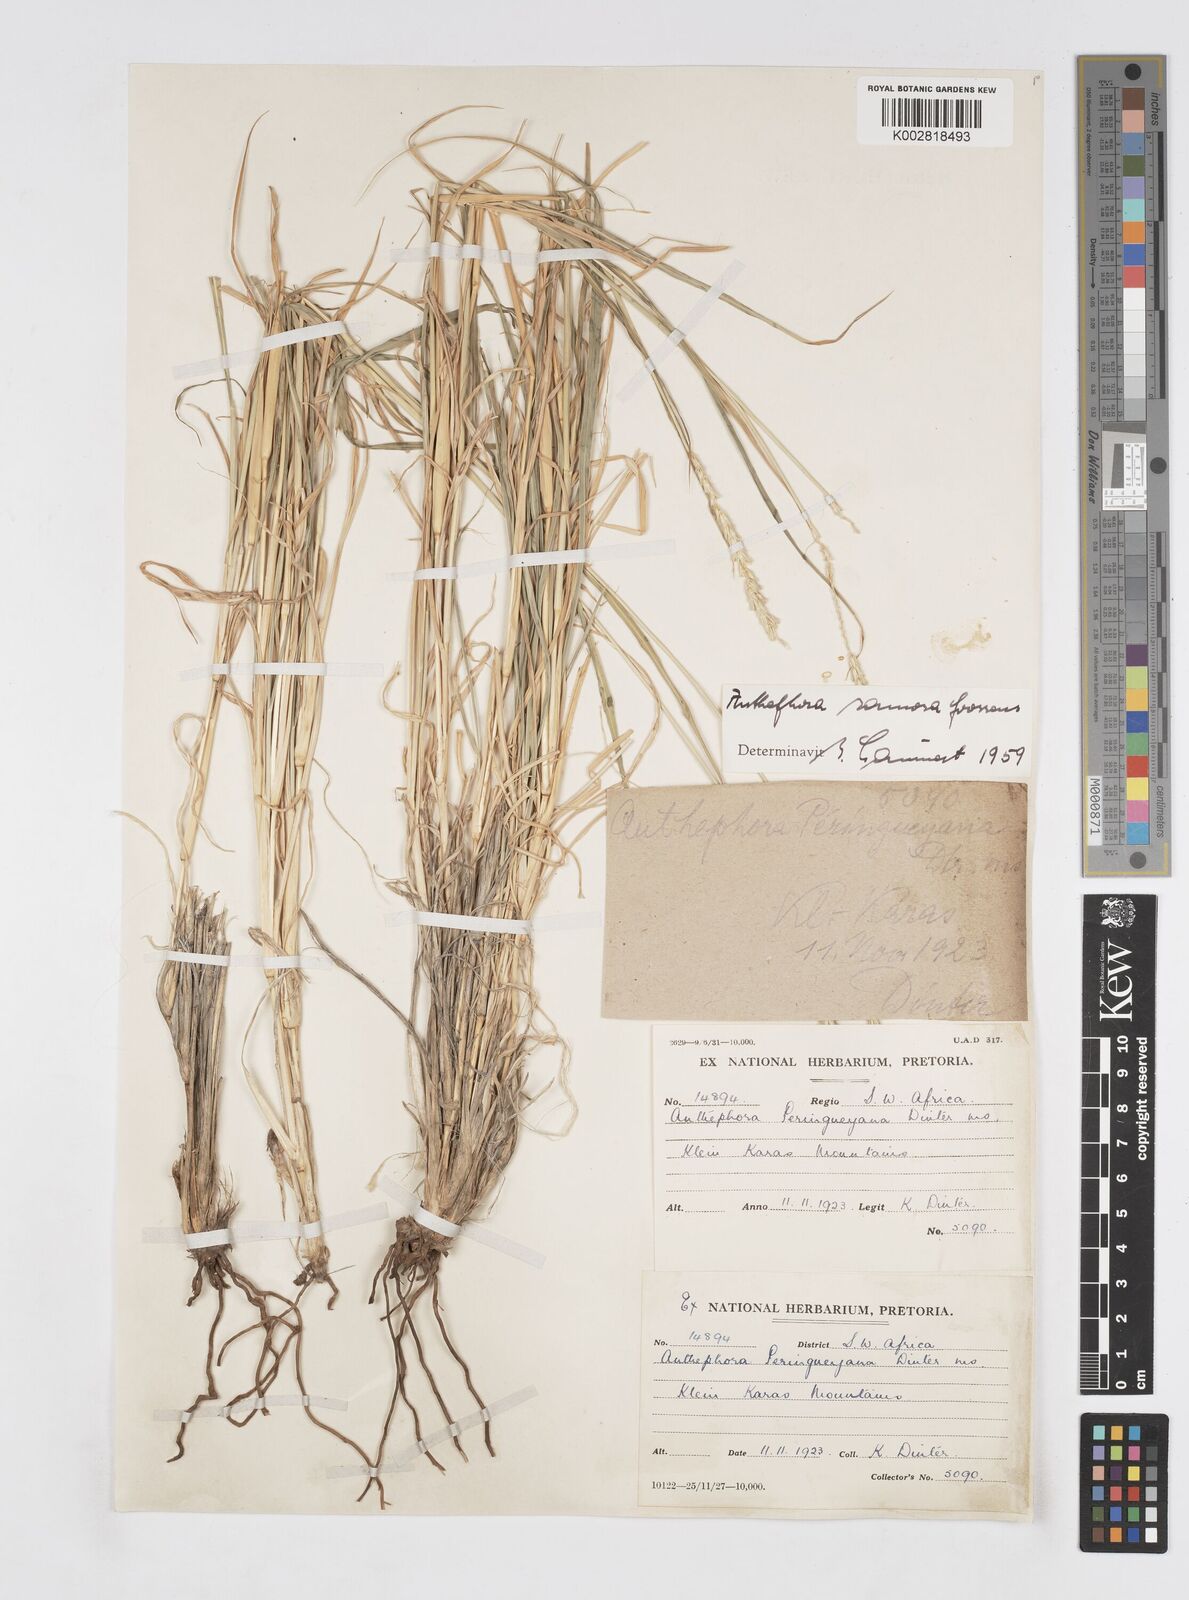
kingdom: Plantae
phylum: Tracheophyta
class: Liliopsida
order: Poales
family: Poaceae
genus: Anthephora
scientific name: Anthephora pubescens
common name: Wool grass
